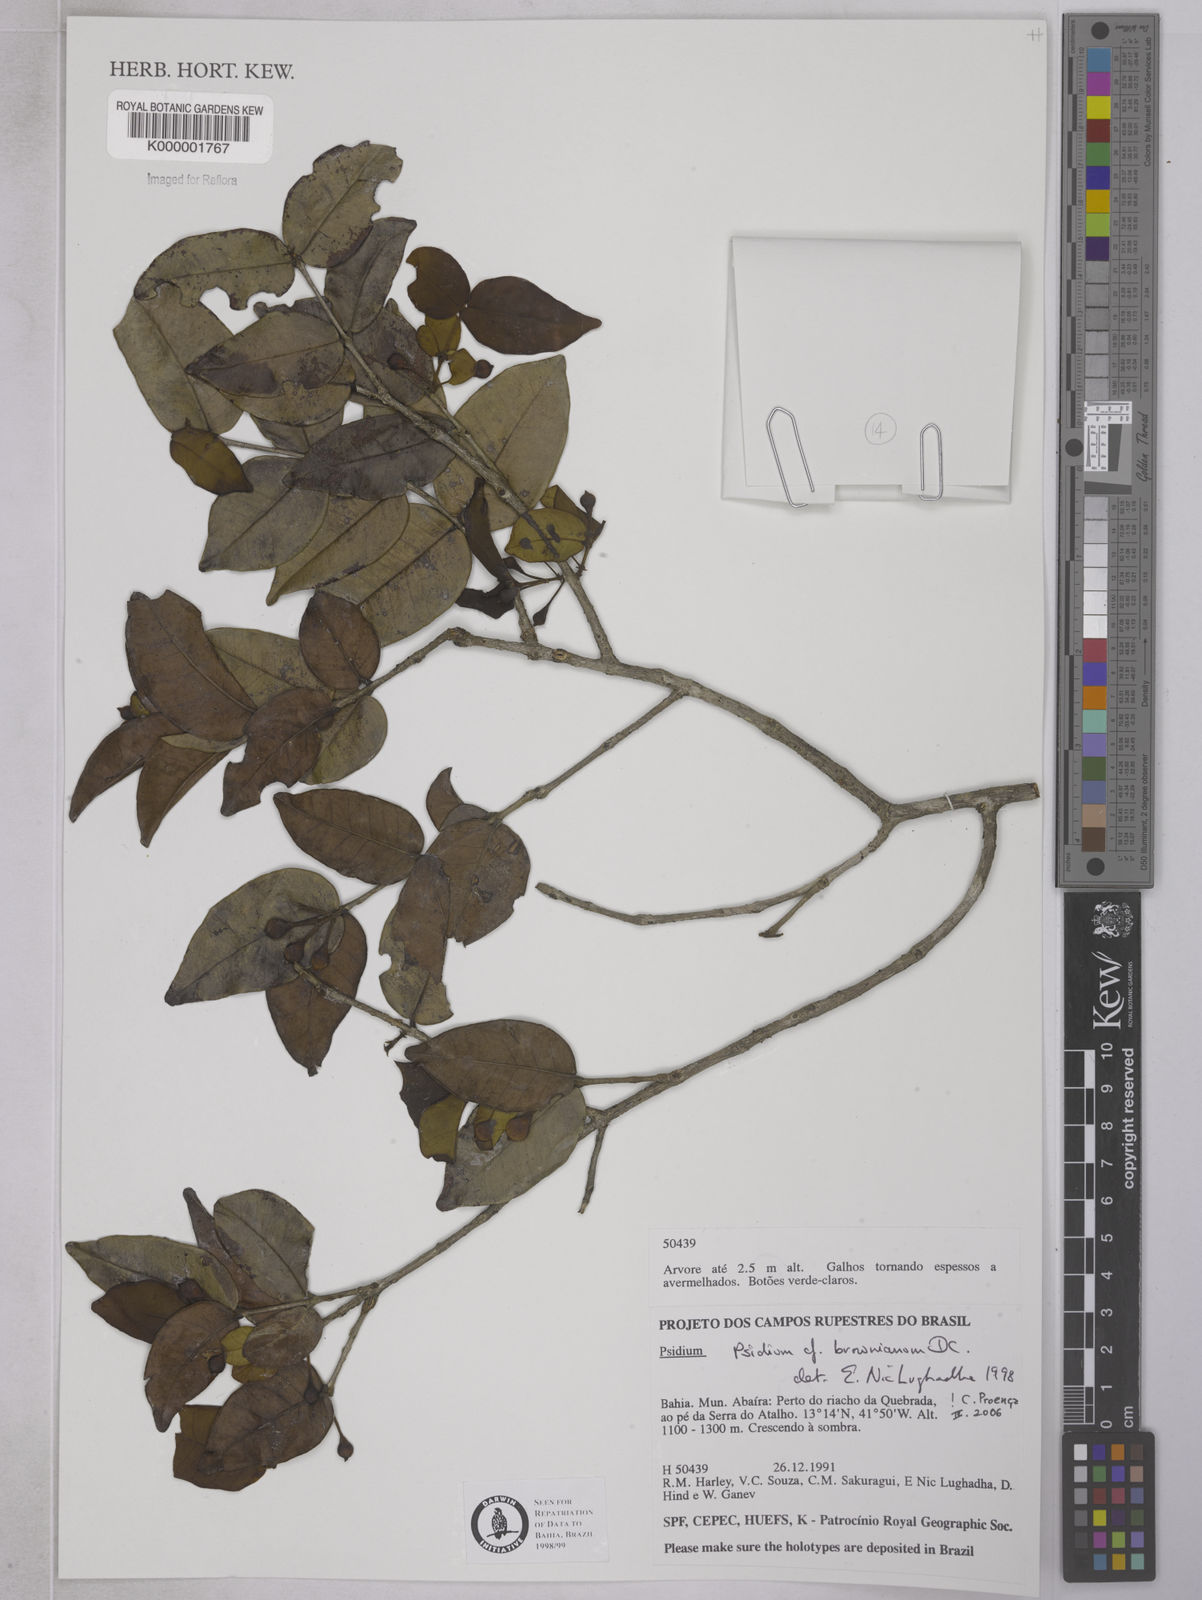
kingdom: Plantae
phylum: Tracheophyta
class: Magnoliopsida
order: Myrtales
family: Myrtaceae
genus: Psidium
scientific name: Psidium brownianum
